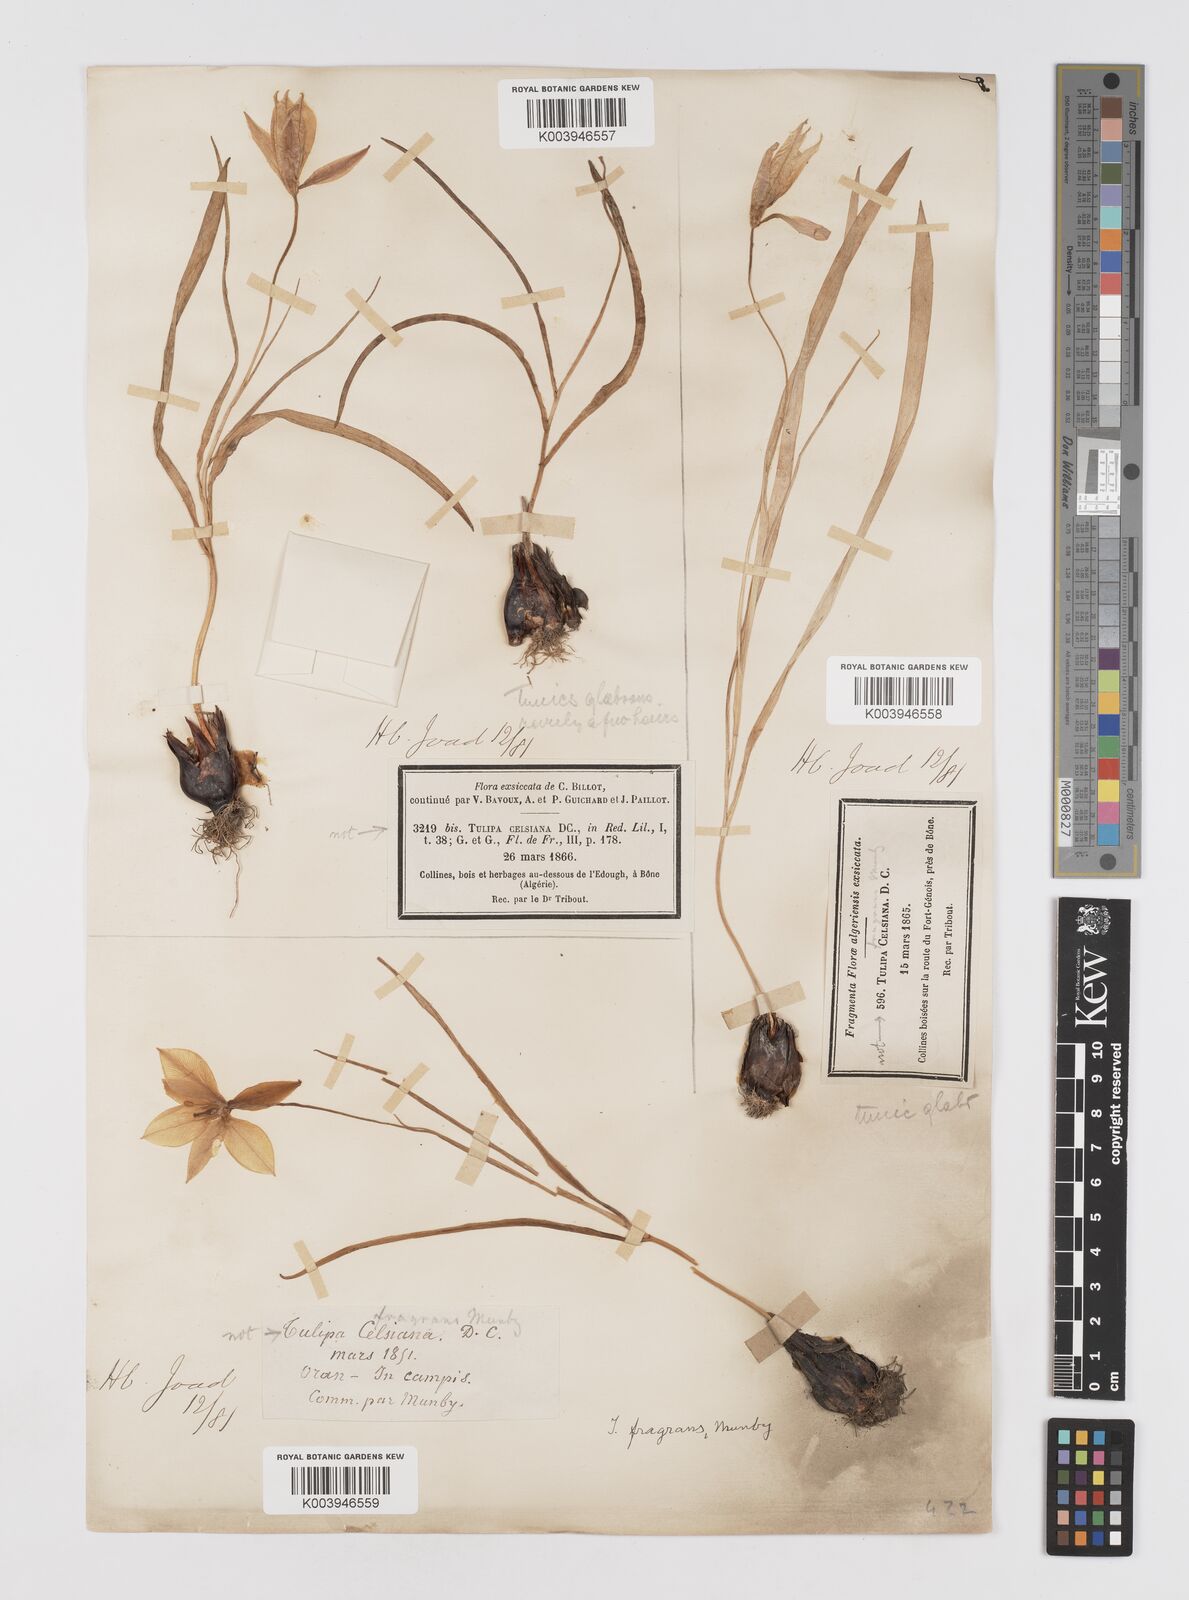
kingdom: Plantae
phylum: Tracheophyta
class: Liliopsida
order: Liliales
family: Liliaceae
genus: Tulipa
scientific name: Tulipa sylvestris
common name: Wild tulip
